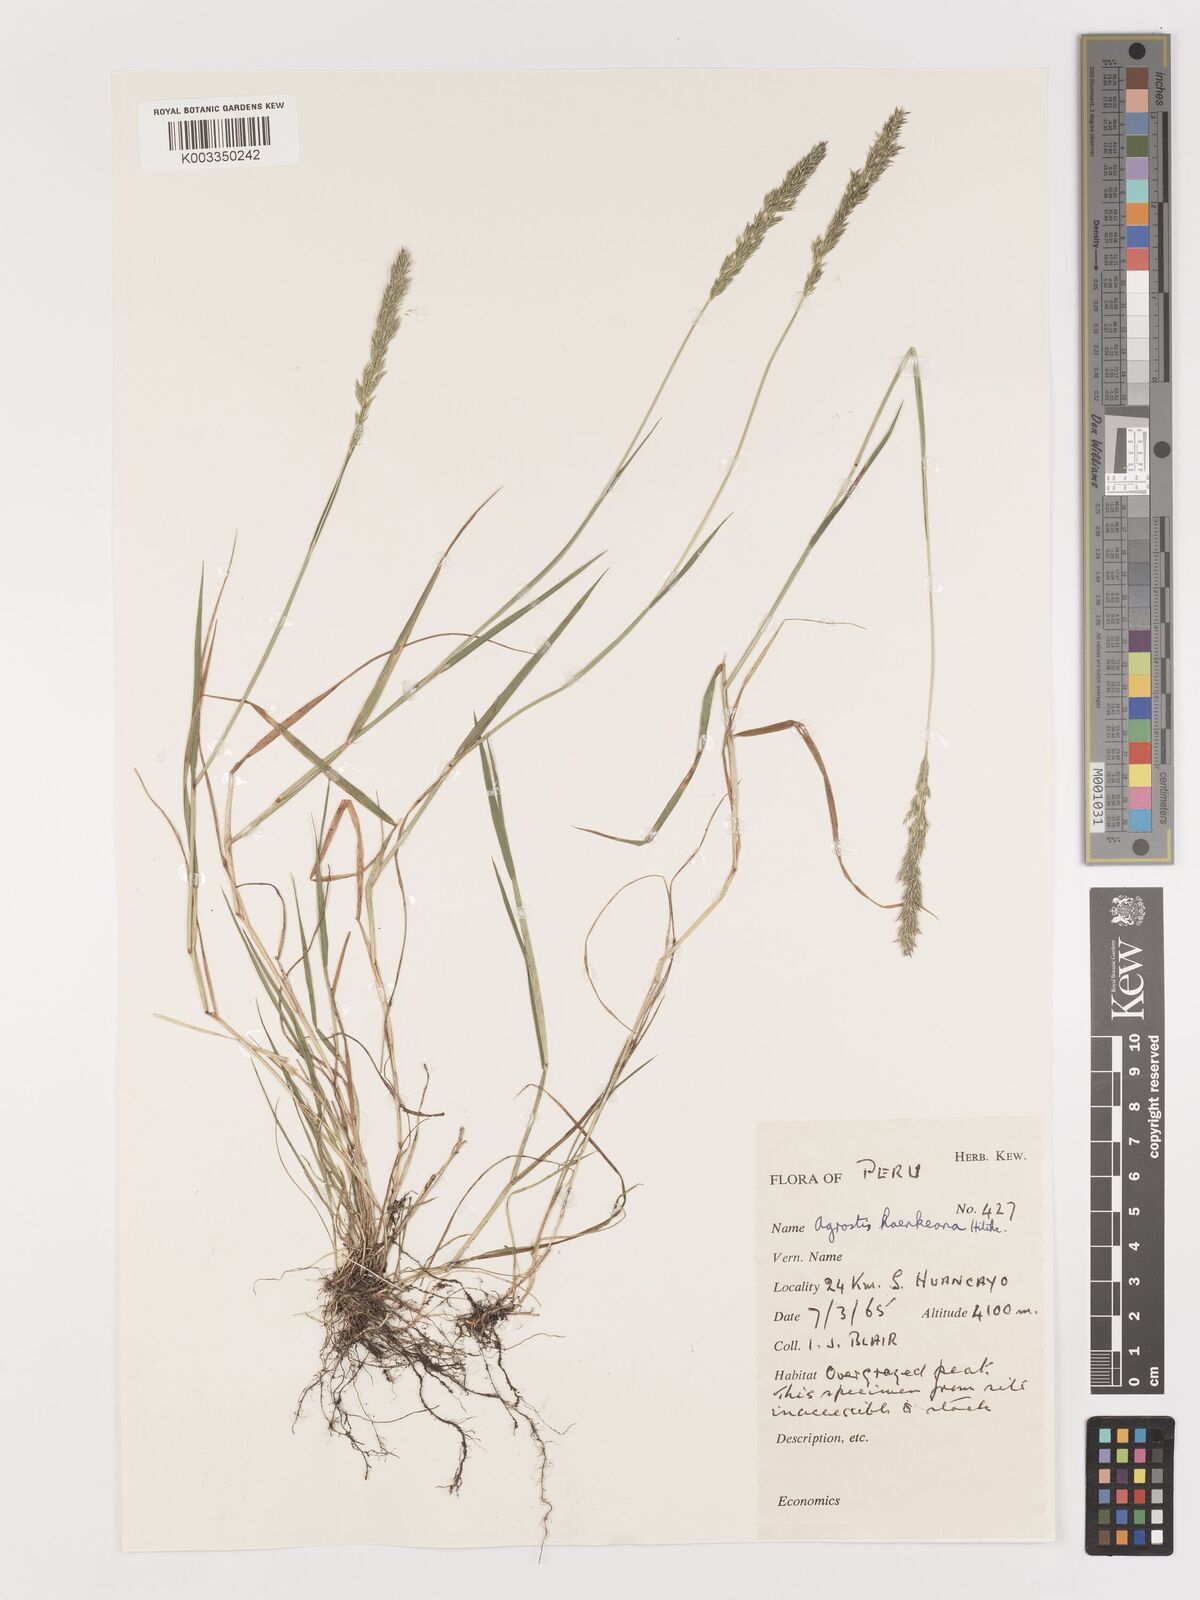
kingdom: Plantae
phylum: Tracheophyta
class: Liliopsida
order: Poales
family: Poaceae
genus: Agrostis
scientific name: Agrostis
